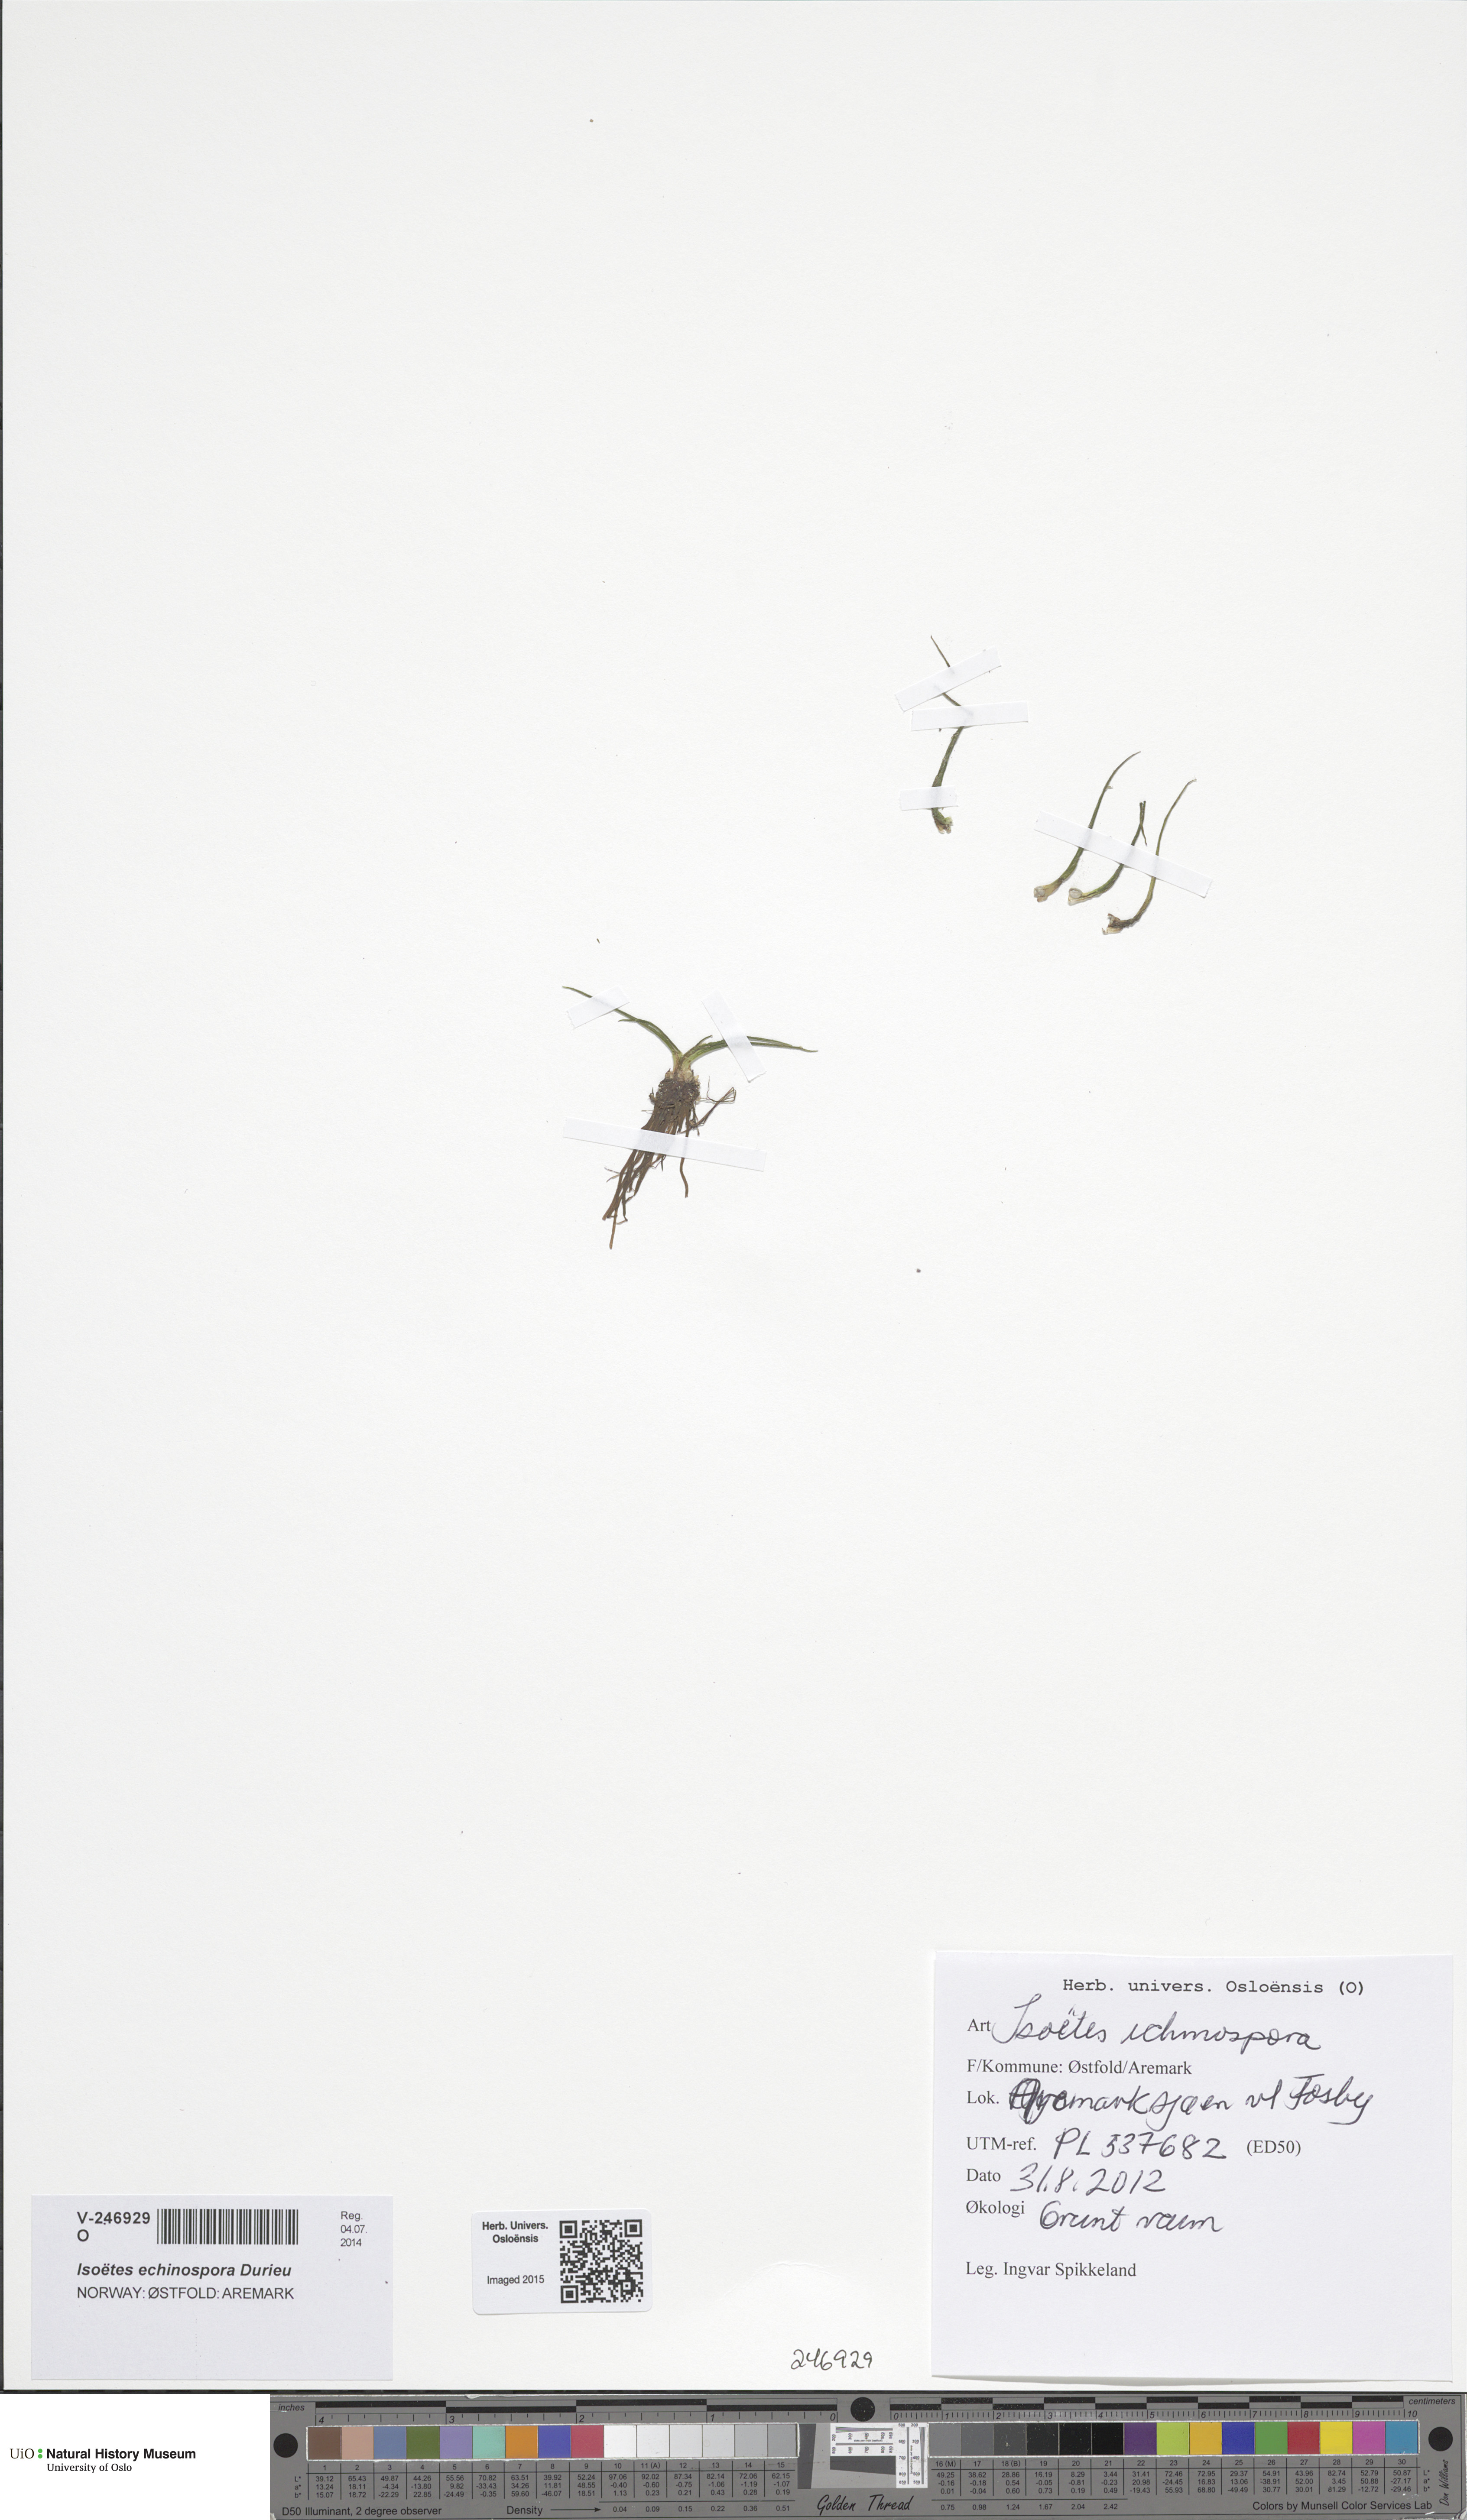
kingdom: Plantae
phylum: Tracheophyta
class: Lycopodiopsida
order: Isoetales
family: Isoetaceae
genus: Isoetes
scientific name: Isoetes echinospora
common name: Spring quillwort
